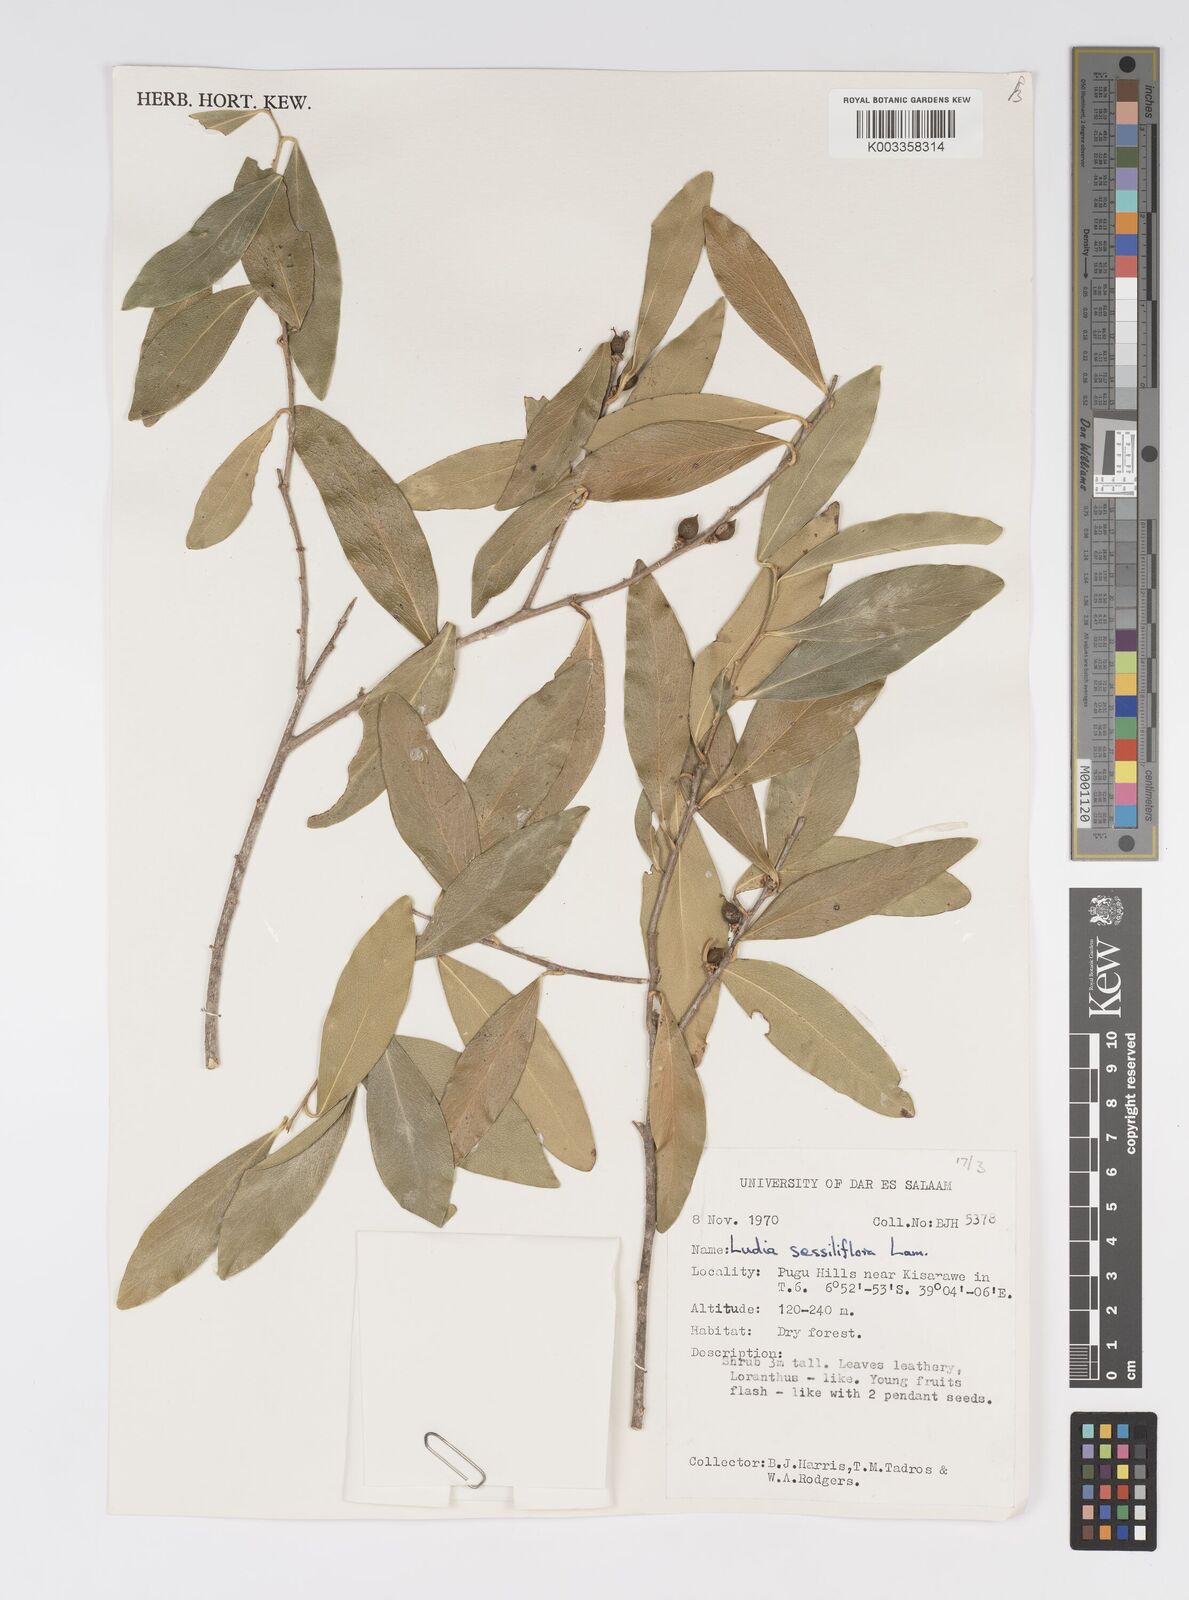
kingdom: Plantae
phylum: Tracheophyta
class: Magnoliopsida
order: Malpighiales
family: Salicaceae
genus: Ludia
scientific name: Ludia mauritiana
